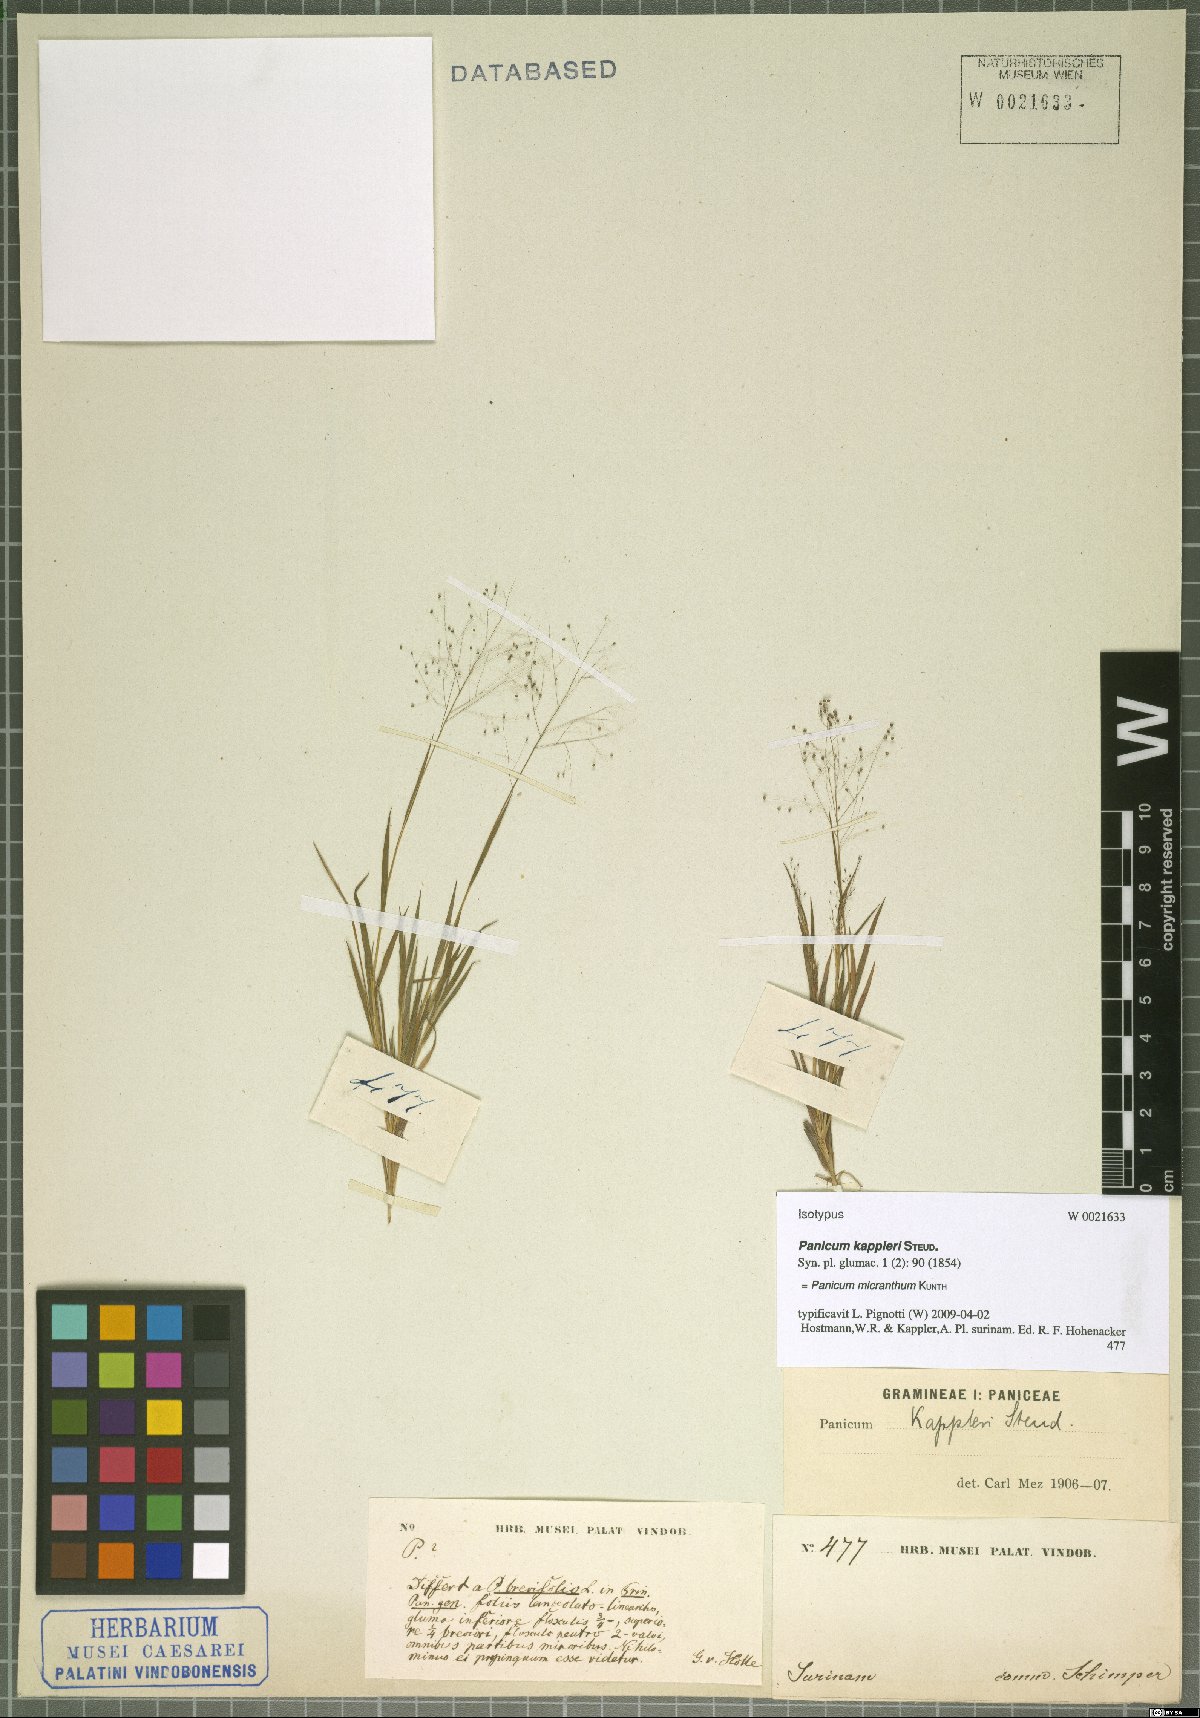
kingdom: Plantae
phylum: Tracheophyta
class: Liliopsida
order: Poales
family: Poaceae
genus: Trichanthecium
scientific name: Trichanthecium micranthum
